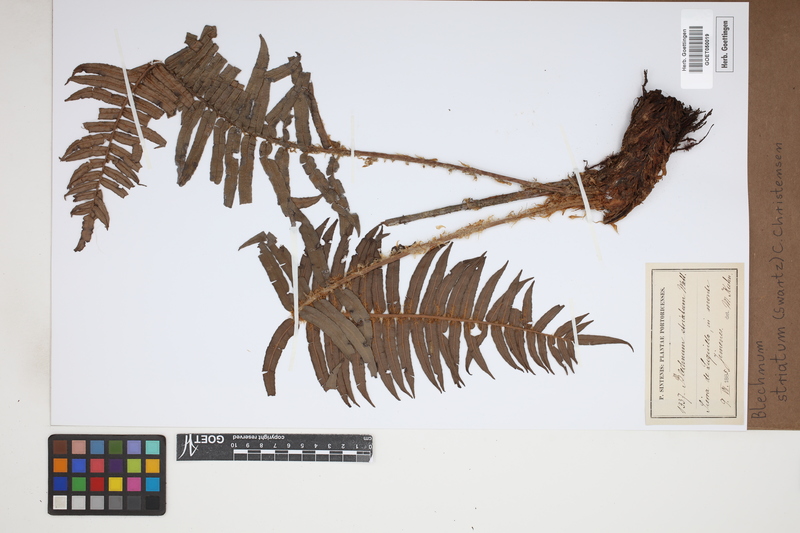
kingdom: Plantae
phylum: Tracheophyta
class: Polypodiopsida
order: Polypodiales
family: Blechnaceae
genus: Telmatoblechnum
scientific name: Telmatoblechnum indicum
